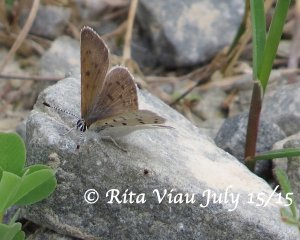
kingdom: Animalia
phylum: Arthropoda
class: Insecta
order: Lepidoptera
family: Sesiidae
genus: Sesia
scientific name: Sesia Lycaena epixanthe
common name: Bog Copper
